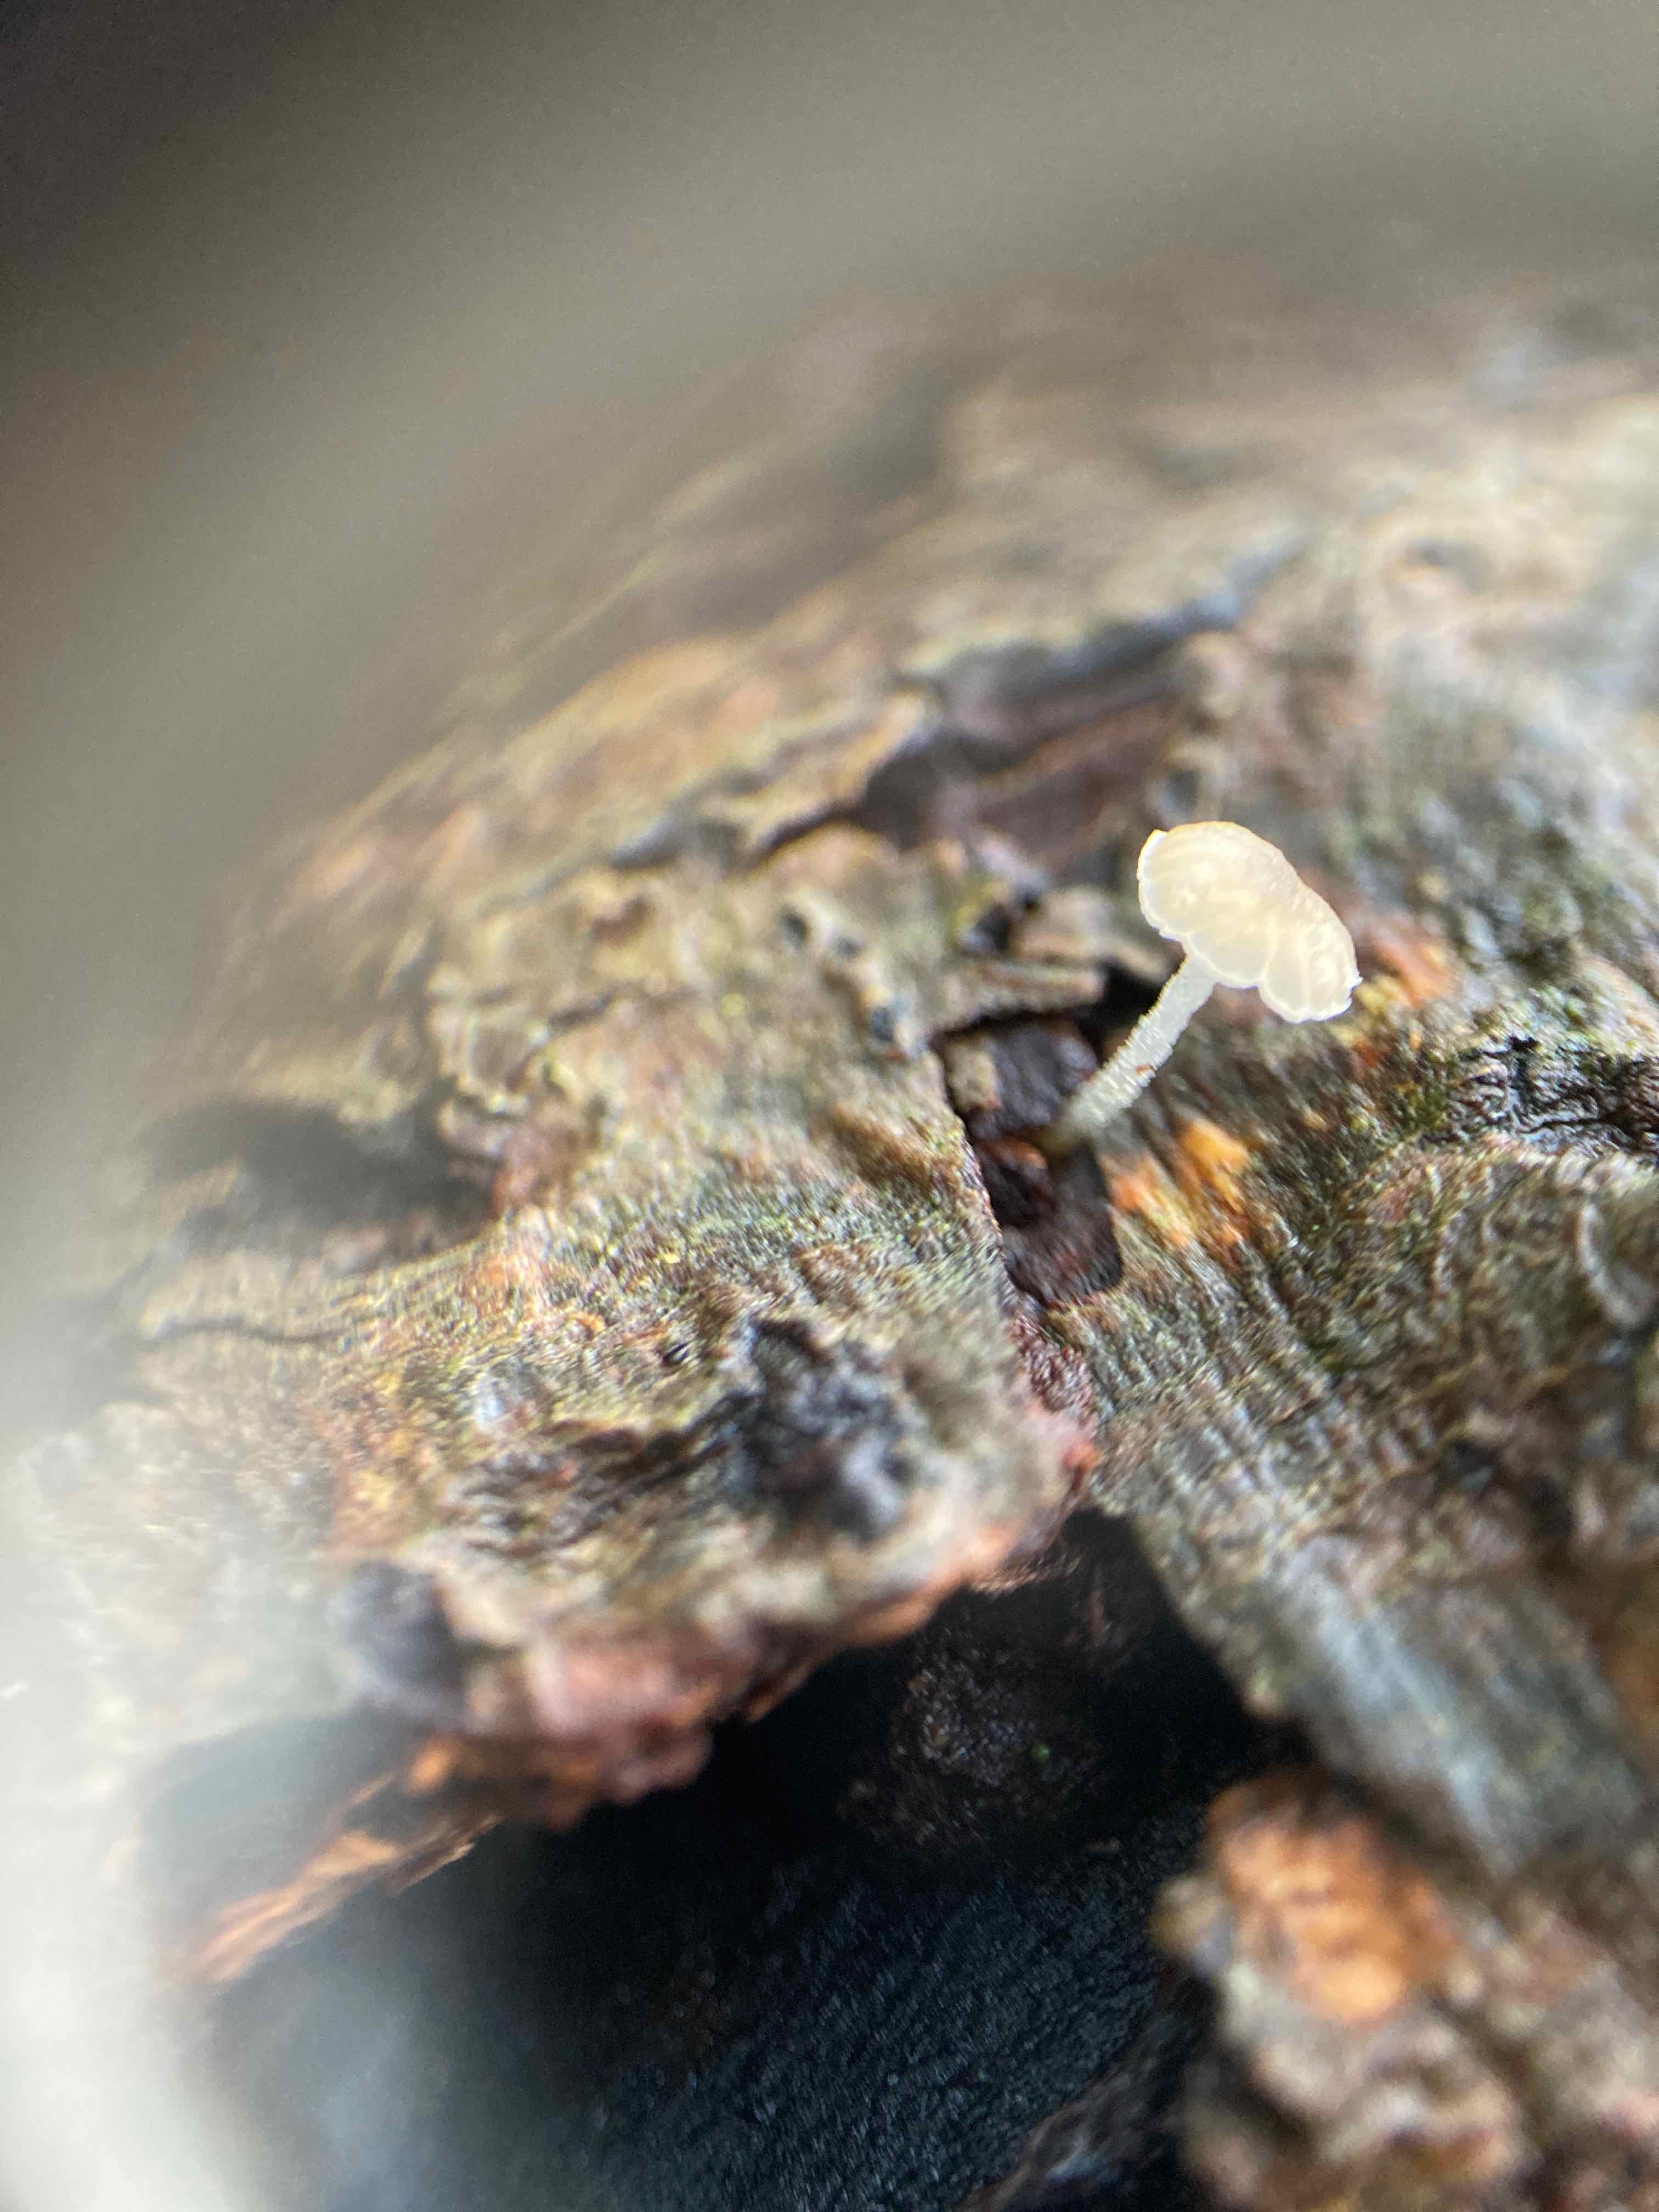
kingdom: Fungi
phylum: Basidiomycota
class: Agaricomycetes
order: Agaricales
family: Porotheleaceae
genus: Phloeomana
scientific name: Phloeomana speirea
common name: kvist-huesvamp
